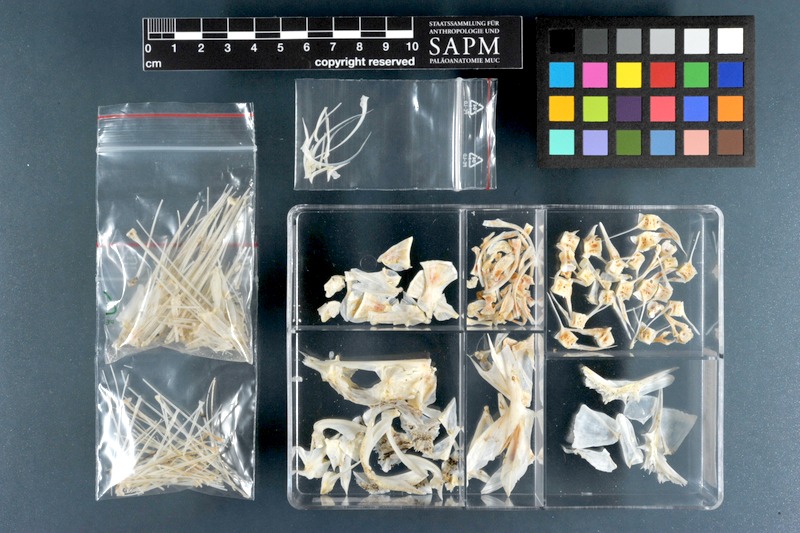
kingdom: Animalia
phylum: Chordata
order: Scorpaeniformes
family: Scorpaenidae
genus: Pterois
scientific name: Pterois russelii
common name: Plaintail firefish
